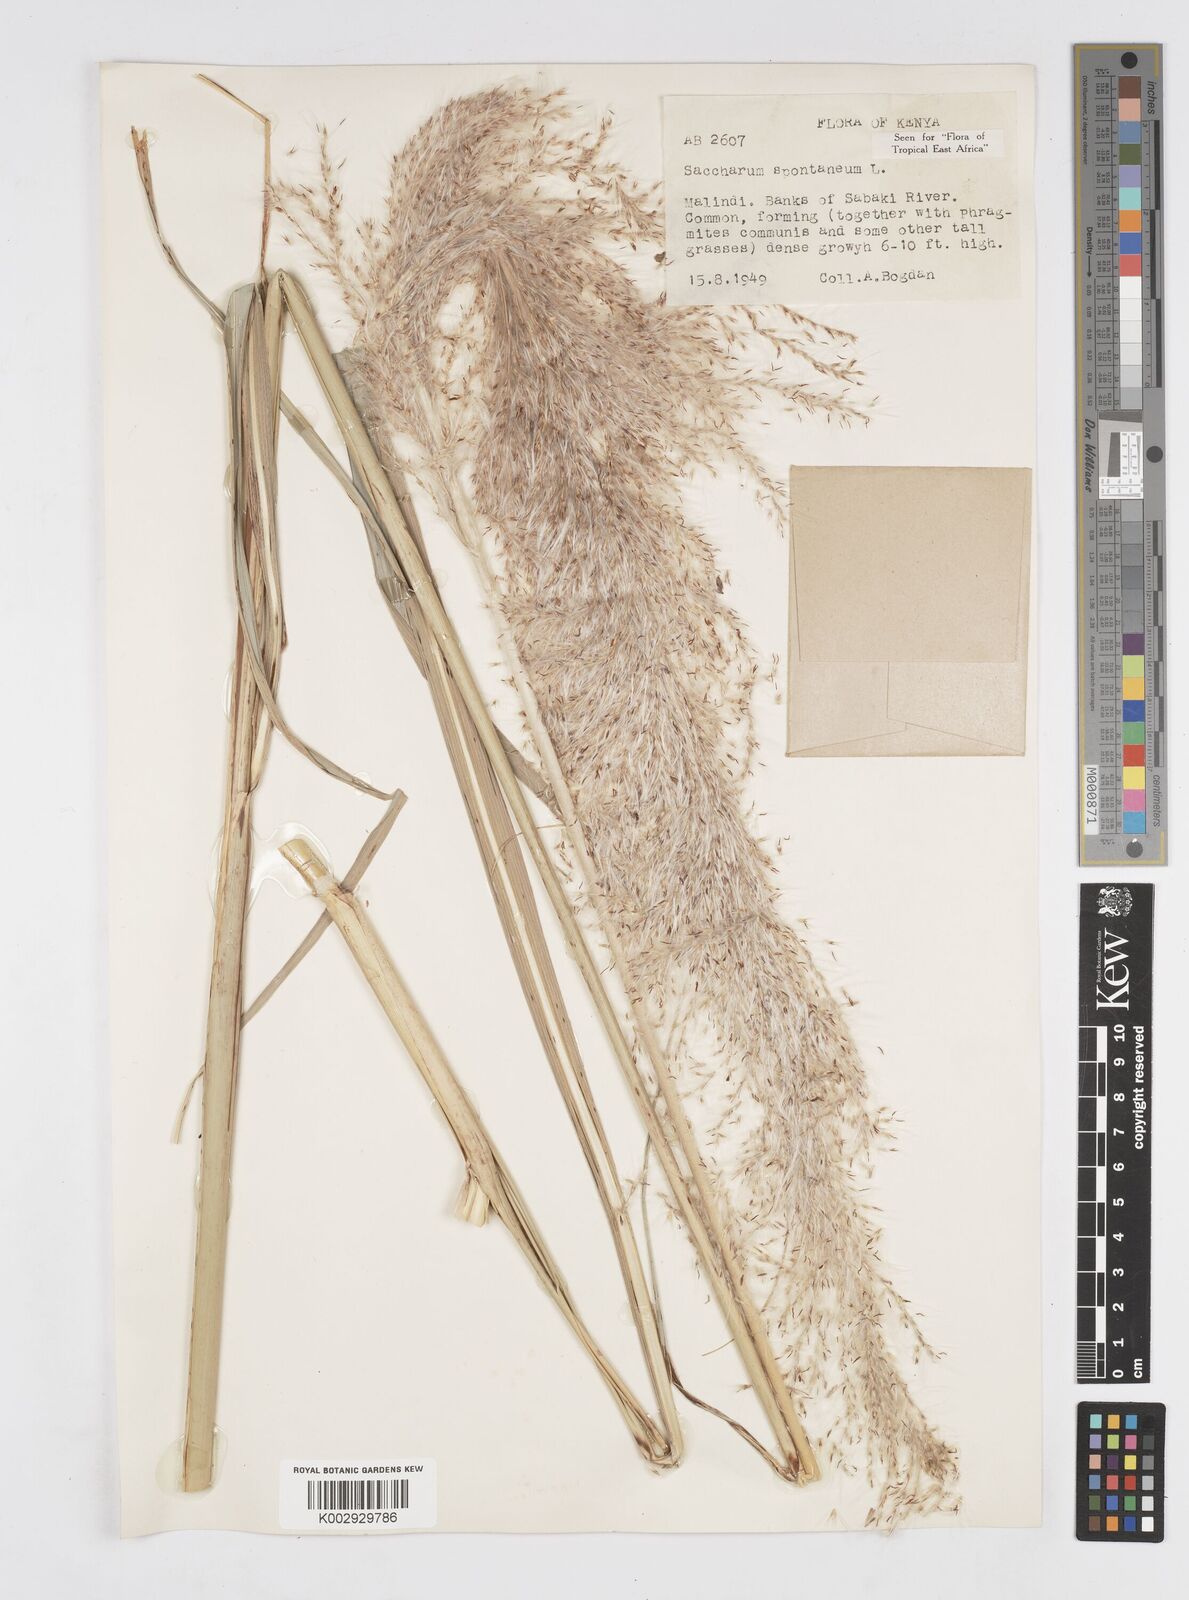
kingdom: Plantae
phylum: Tracheophyta
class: Liliopsida
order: Poales
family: Poaceae
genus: Saccharum
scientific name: Saccharum spontaneum
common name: Wild sugarcane
